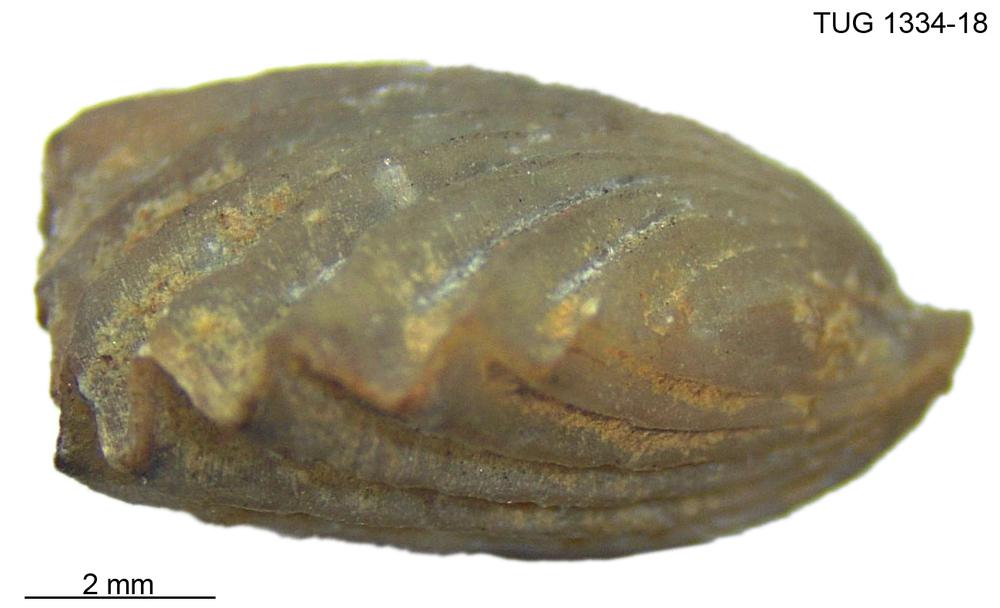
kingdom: Animalia
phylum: Brachiopoda
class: Rhynchonellata
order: Rhynchonellida
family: Trigonirhynchiidae
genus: Rostricellula
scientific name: Rostricellula nobilis
